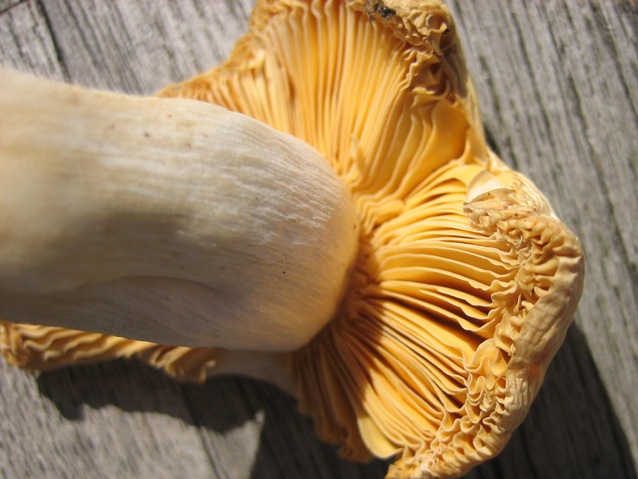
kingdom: Fungi
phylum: Basidiomycota
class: Agaricomycetes
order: Russulales
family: Russulaceae
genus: Russula
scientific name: Russula risigallina
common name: abrikos-skørhat
